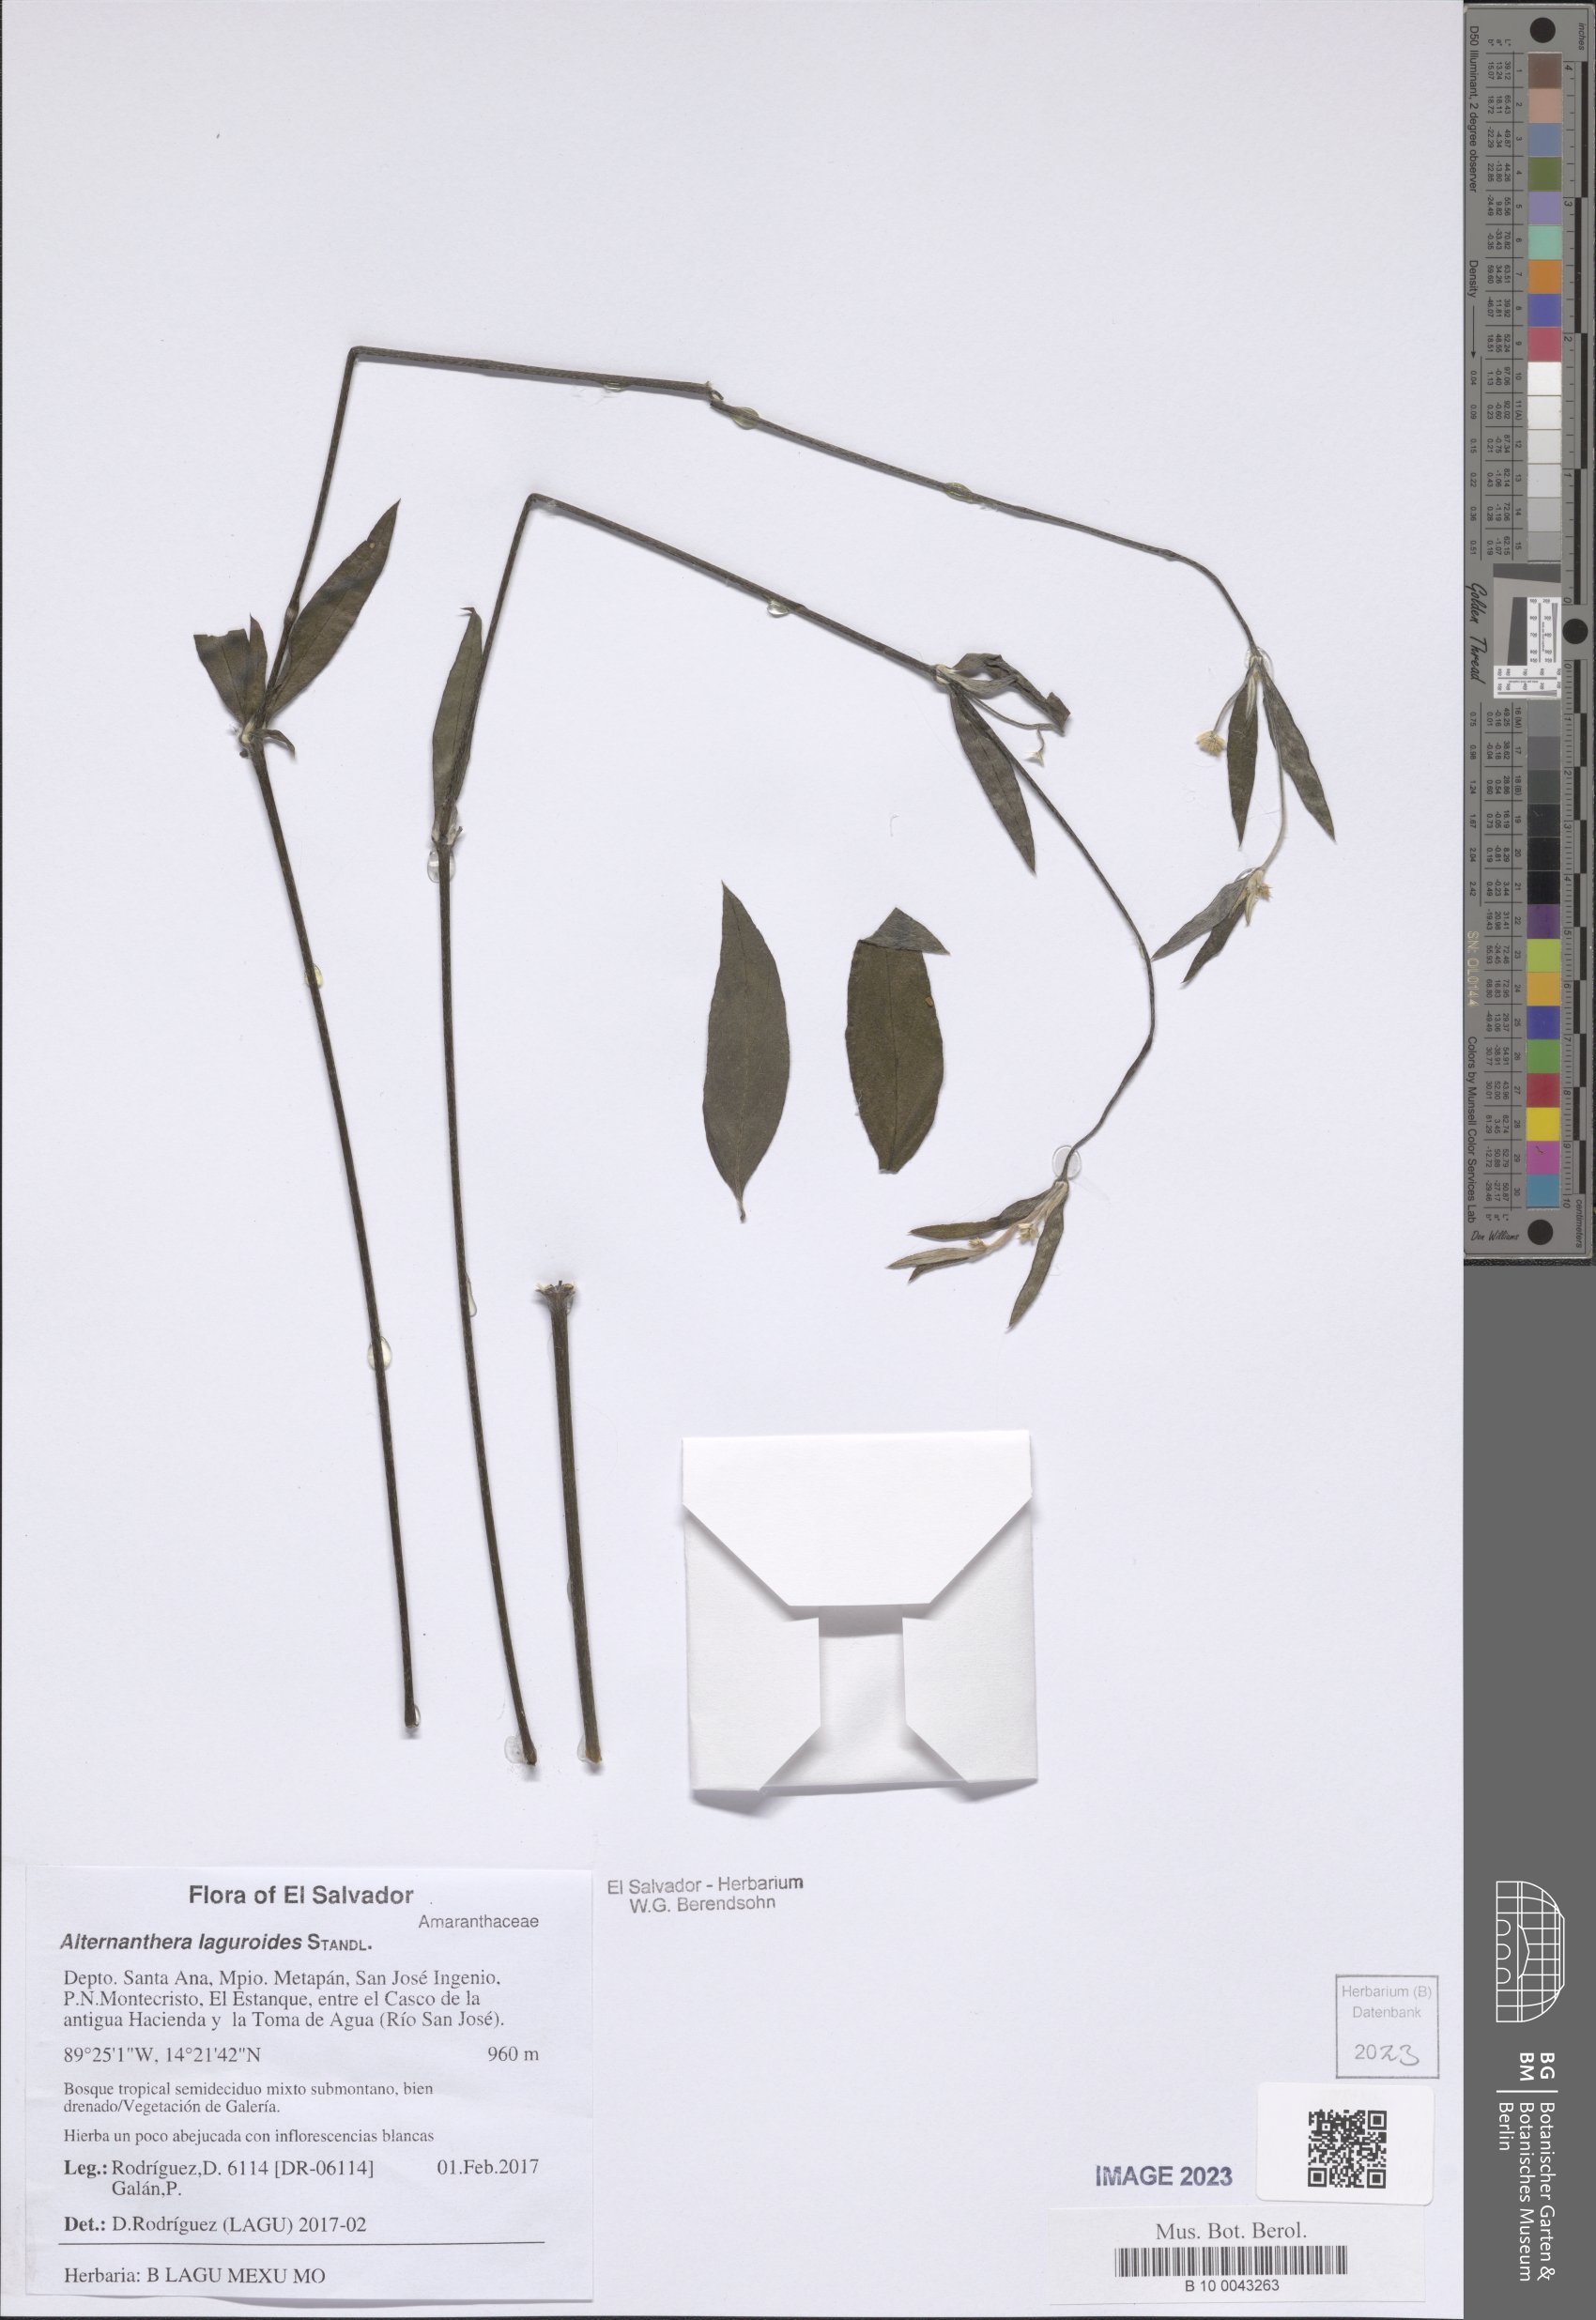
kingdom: Plantae
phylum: Tracheophyta
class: Magnoliopsida
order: Caryophyllales
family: Amaranthaceae
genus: Alternanthera
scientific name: Alternanthera laguroides
